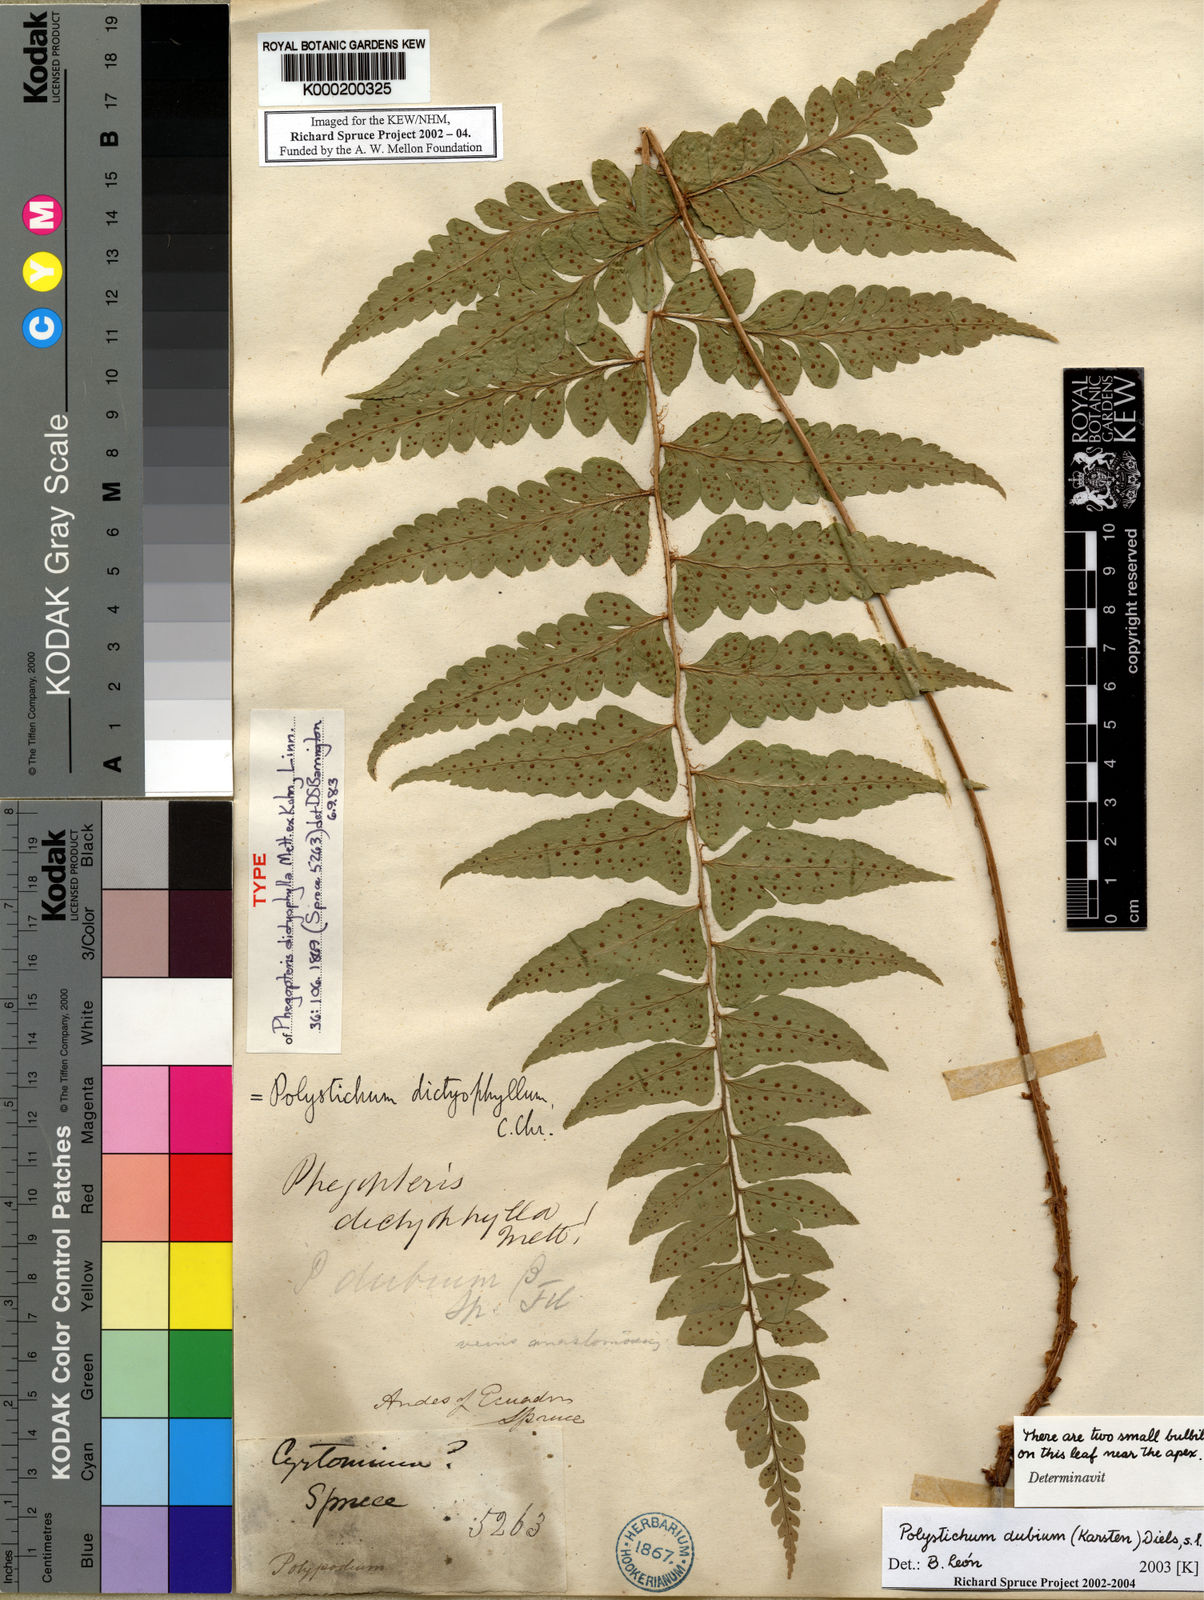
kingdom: Plantae
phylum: Tracheophyta
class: Polypodiopsida
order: Polypodiales
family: Dryopteridaceae
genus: Polystichum
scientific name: Polystichum dubium
